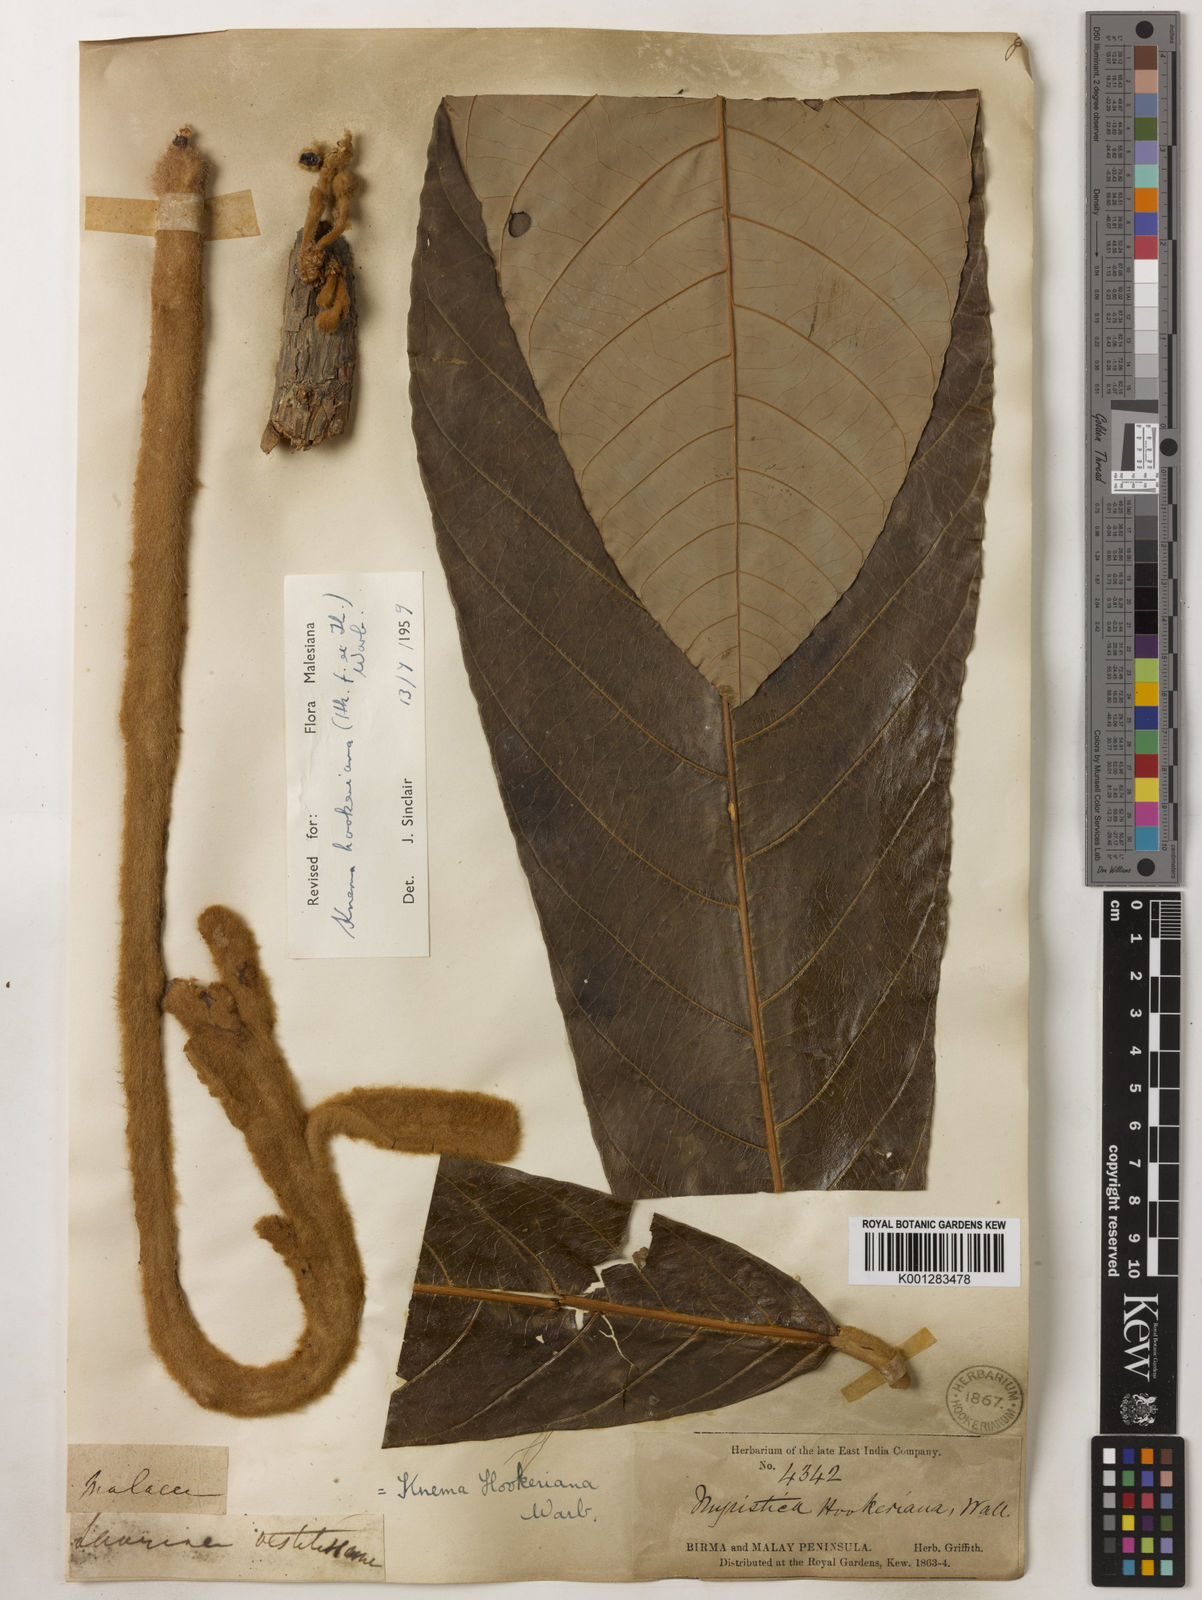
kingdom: Plantae
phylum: Tracheophyta
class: Magnoliopsida
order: Magnoliales
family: Myristicaceae
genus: Knema
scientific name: Knema hookeriana
